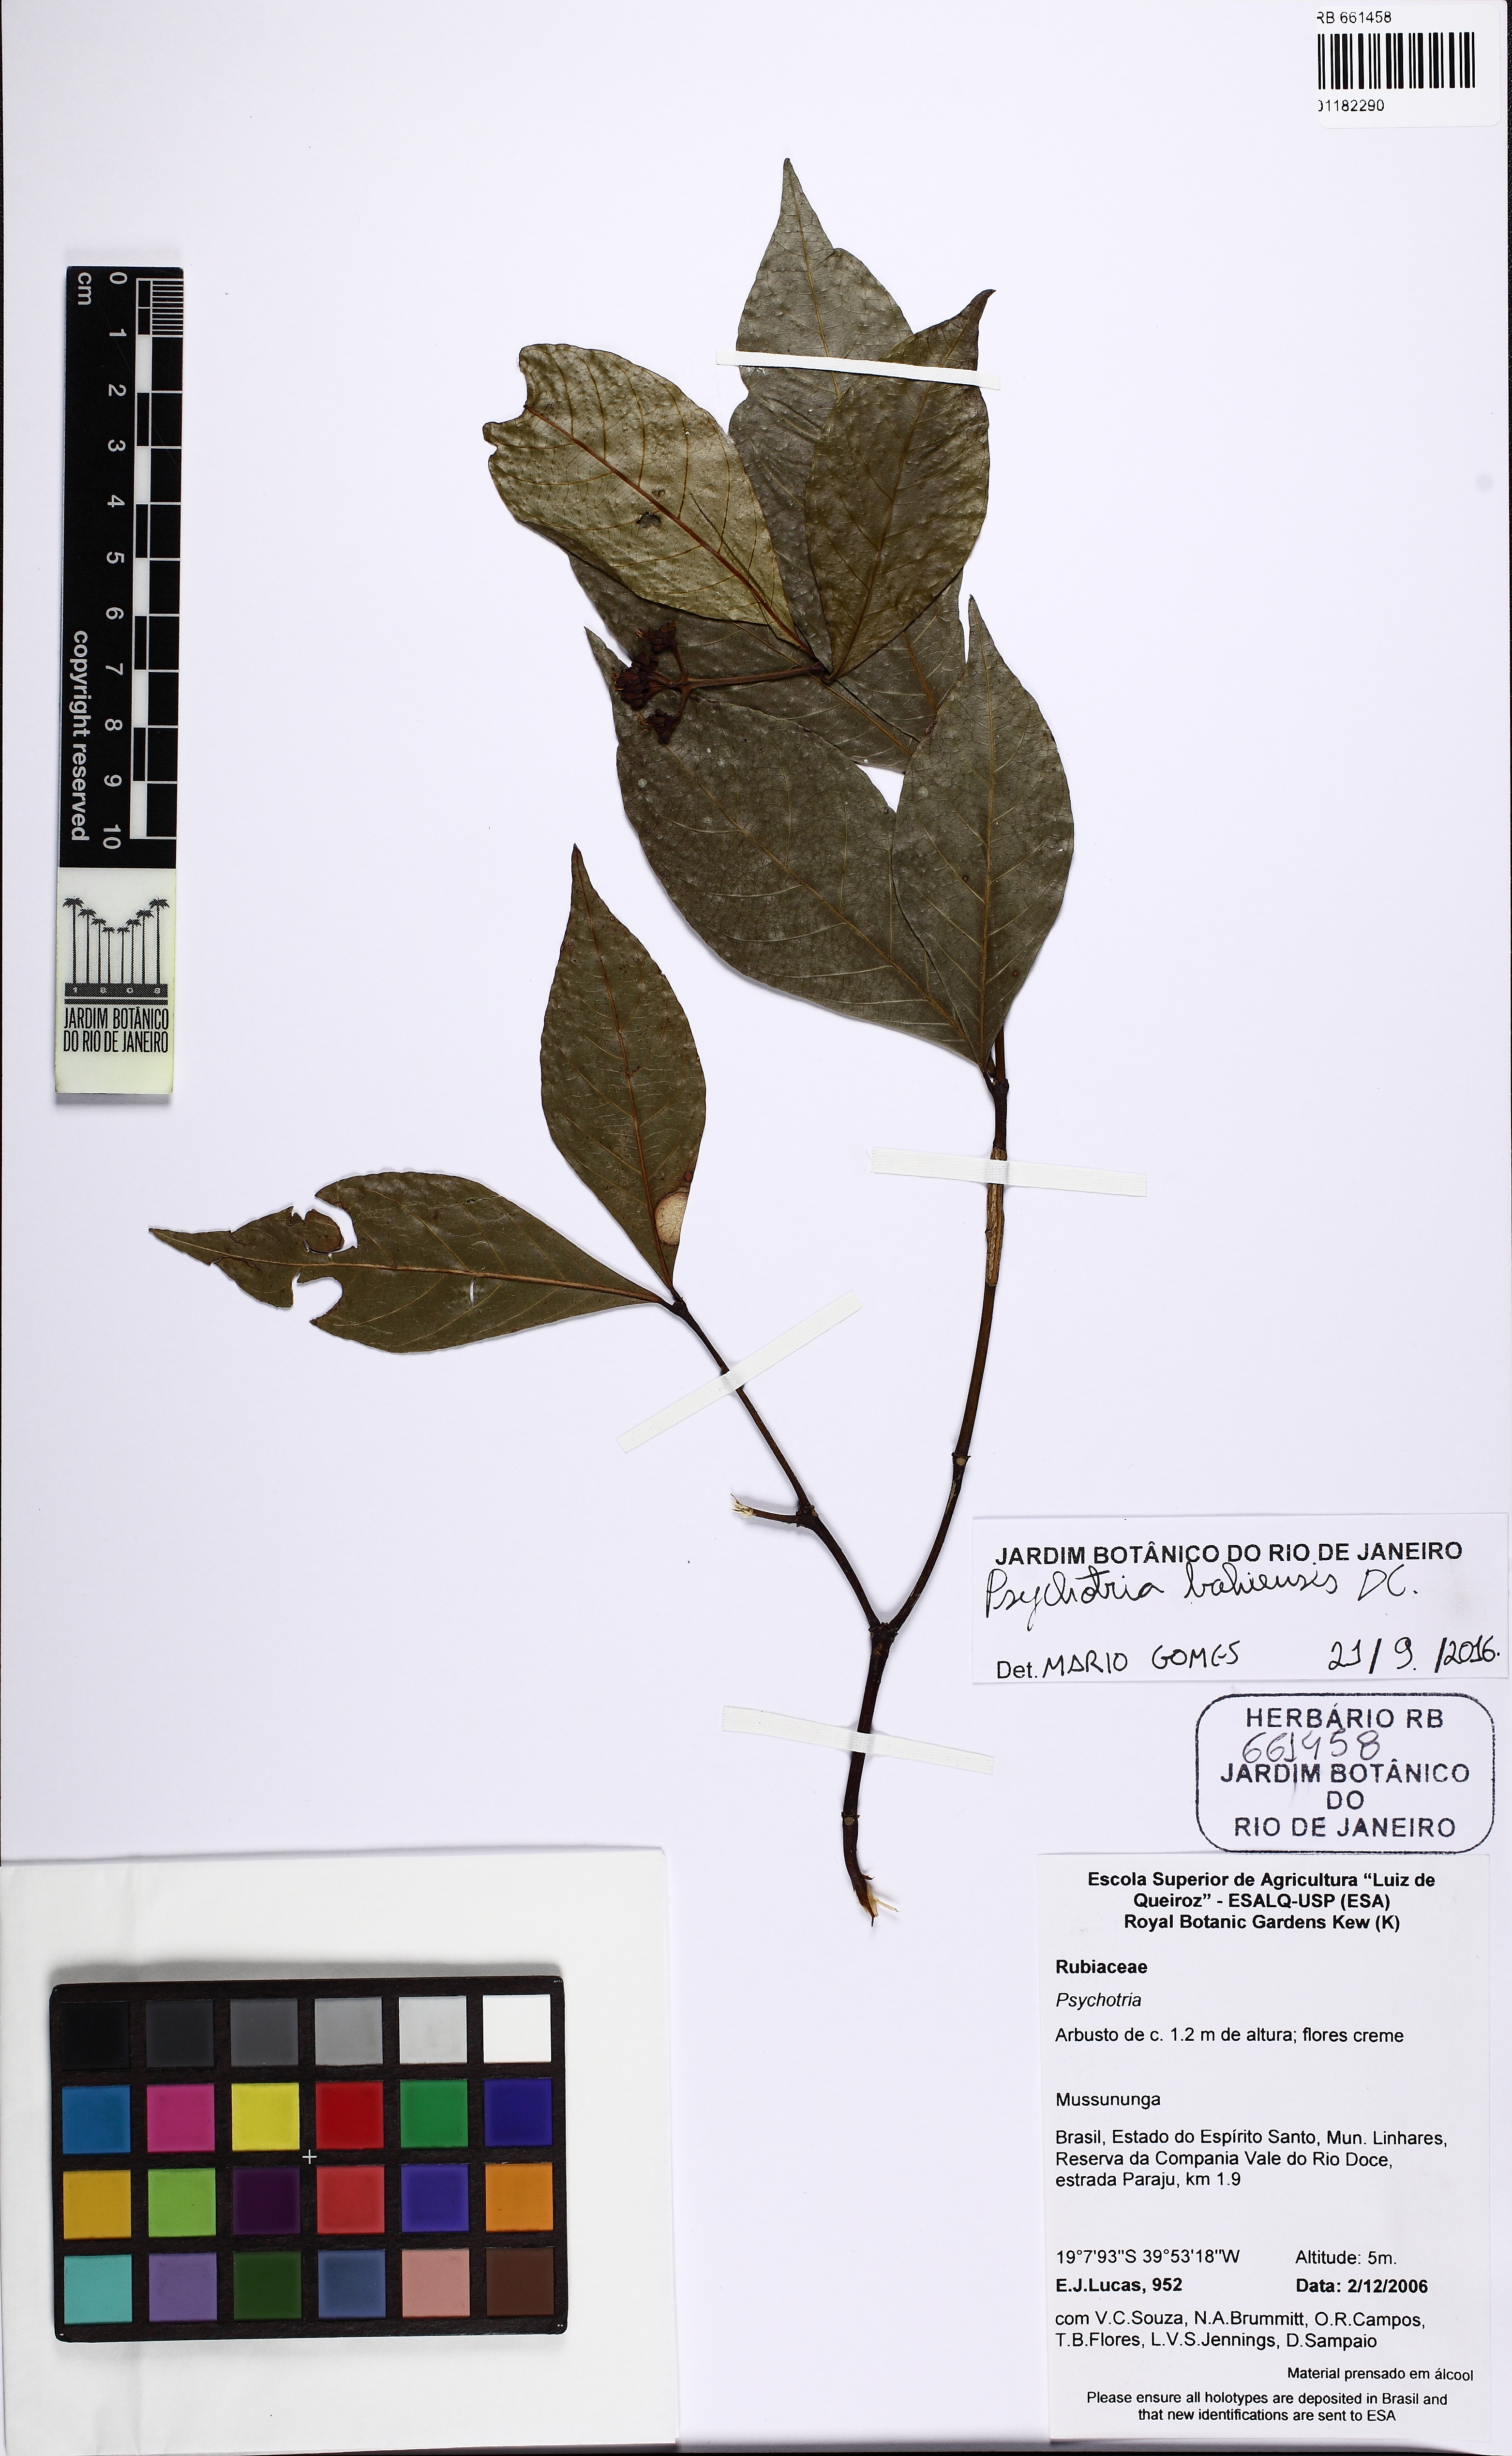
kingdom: Plantae
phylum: Tracheophyta
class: Magnoliopsida
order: Gentianales
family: Rubiaceae
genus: Psychotria
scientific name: Psychotria bahiensis
